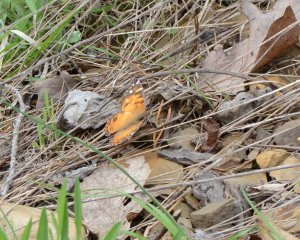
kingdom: Animalia
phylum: Arthropoda
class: Insecta
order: Lepidoptera
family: Nymphalidae
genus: Vanessa
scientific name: Vanessa virginiensis
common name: American Lady
